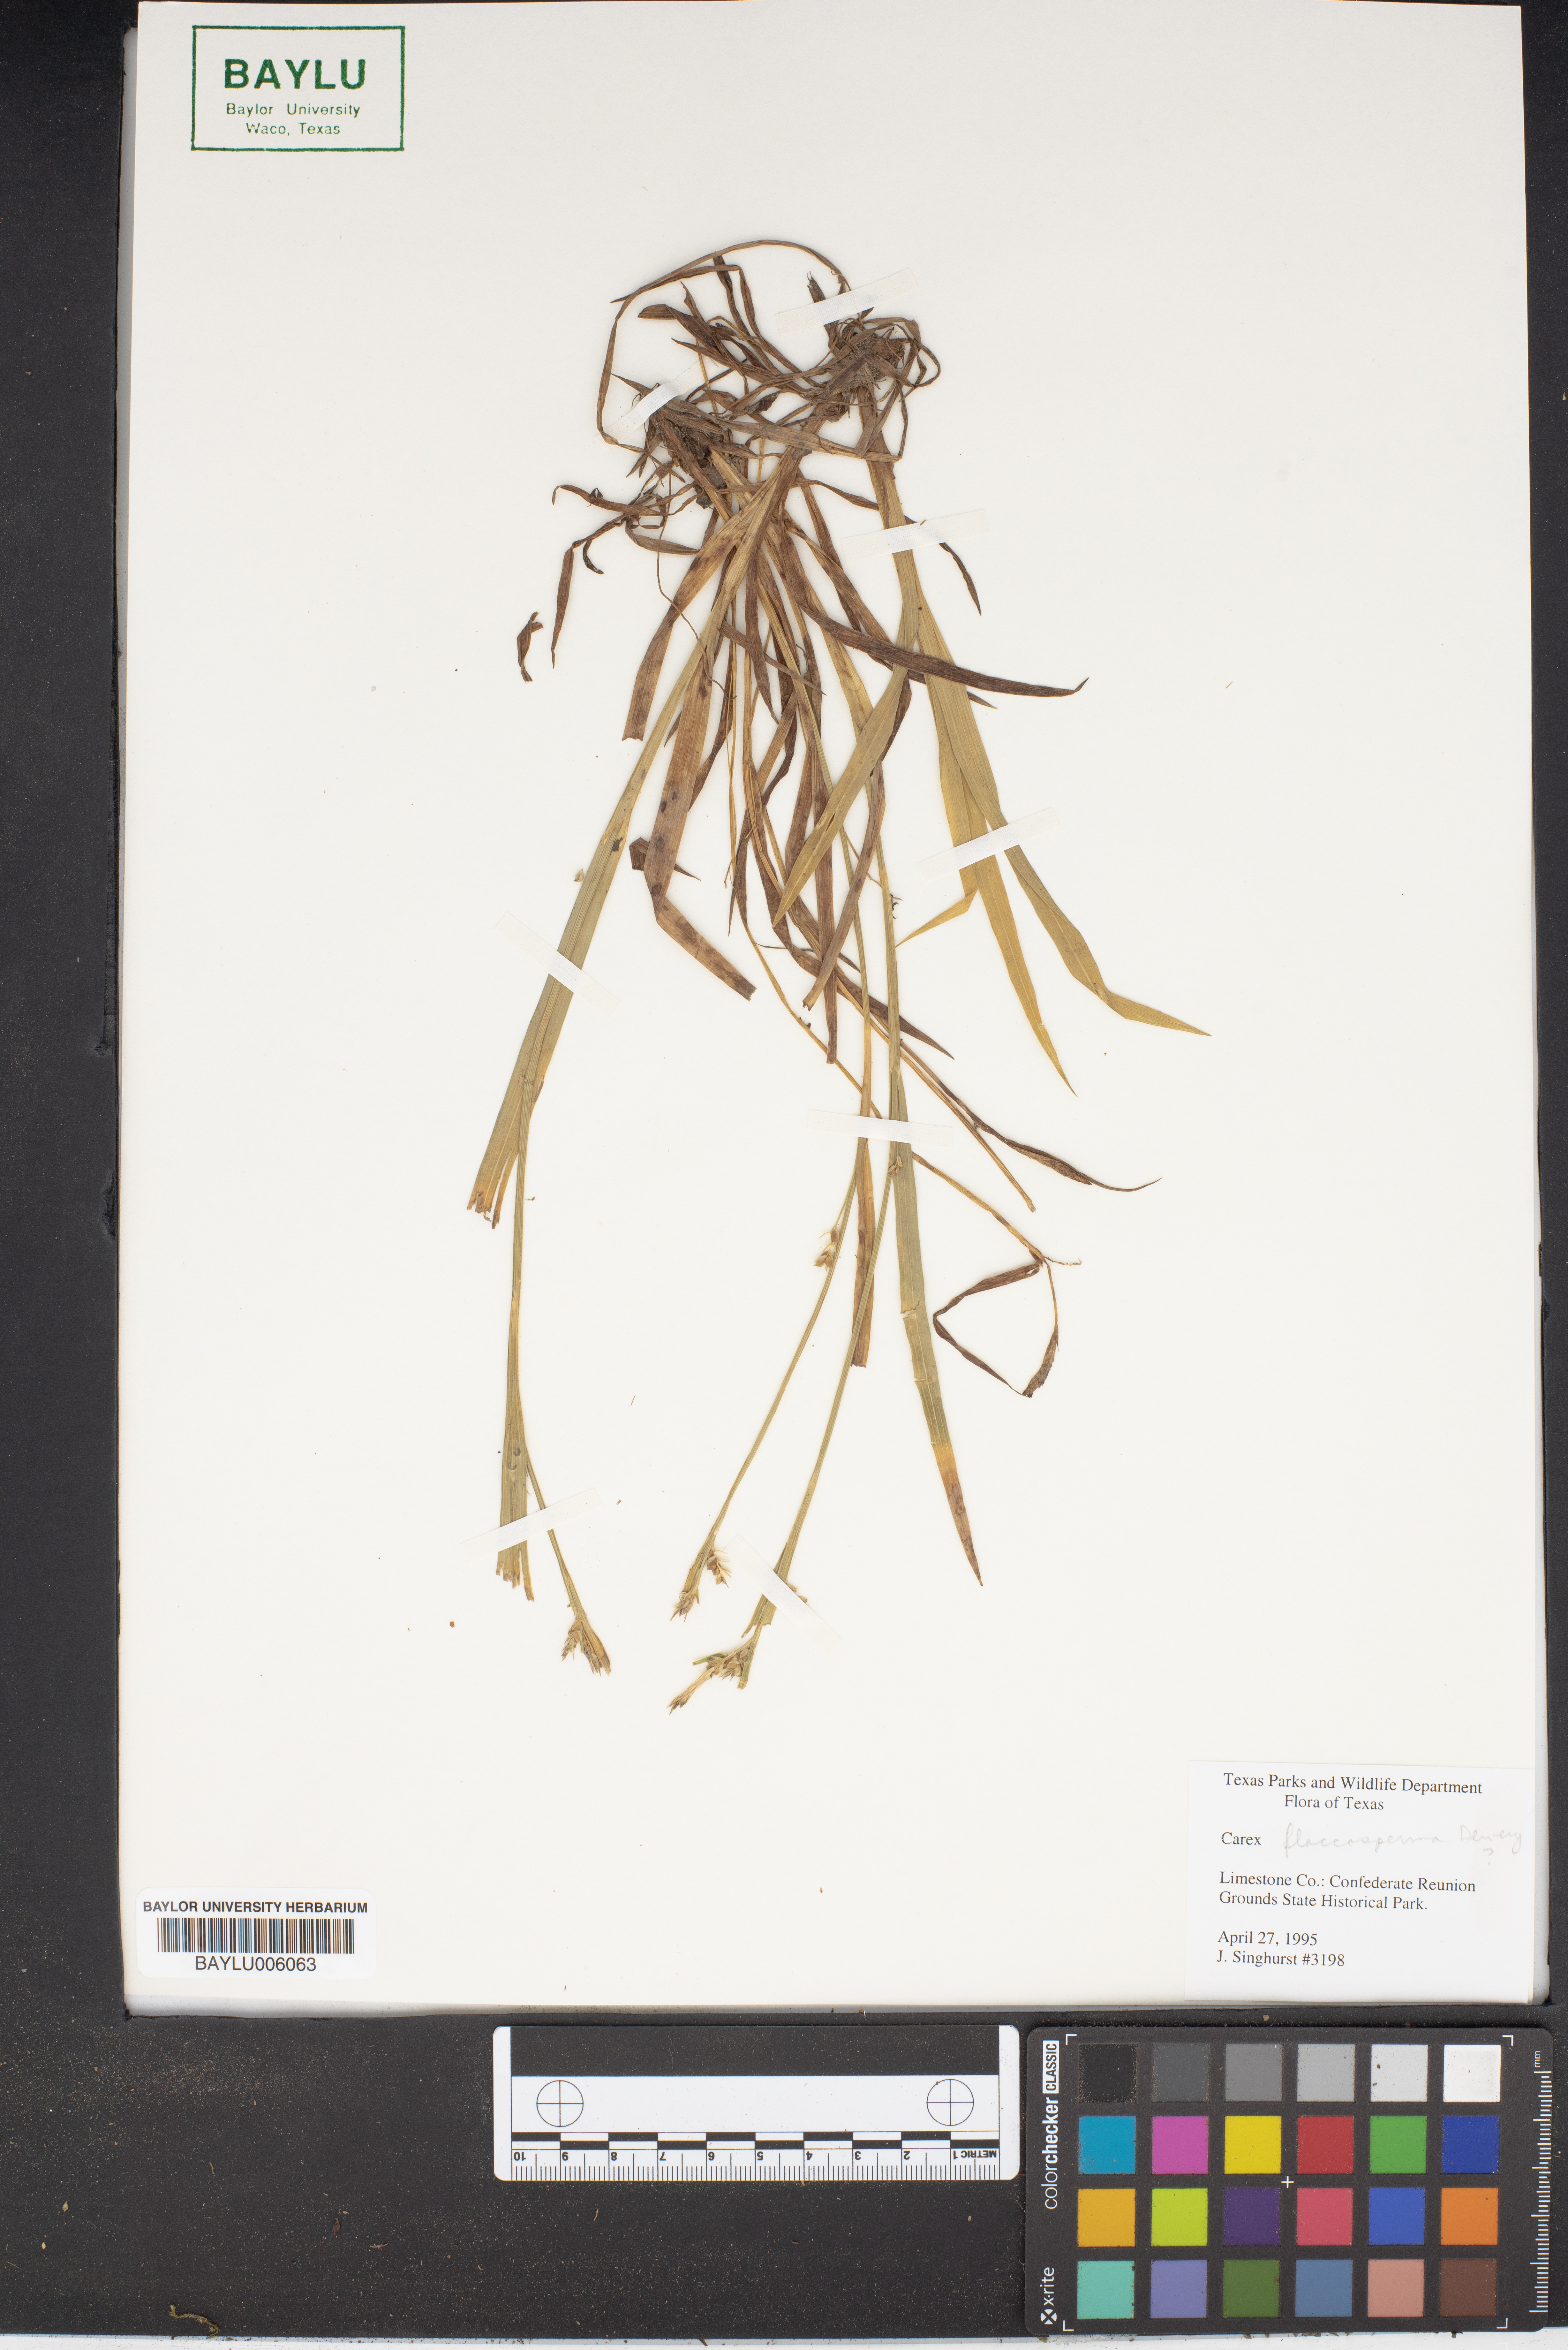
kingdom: Plantae
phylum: Tracheophyta
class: Liliopsida
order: Poales
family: Cyperaceae
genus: Carex
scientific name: Carex flaccosperma
